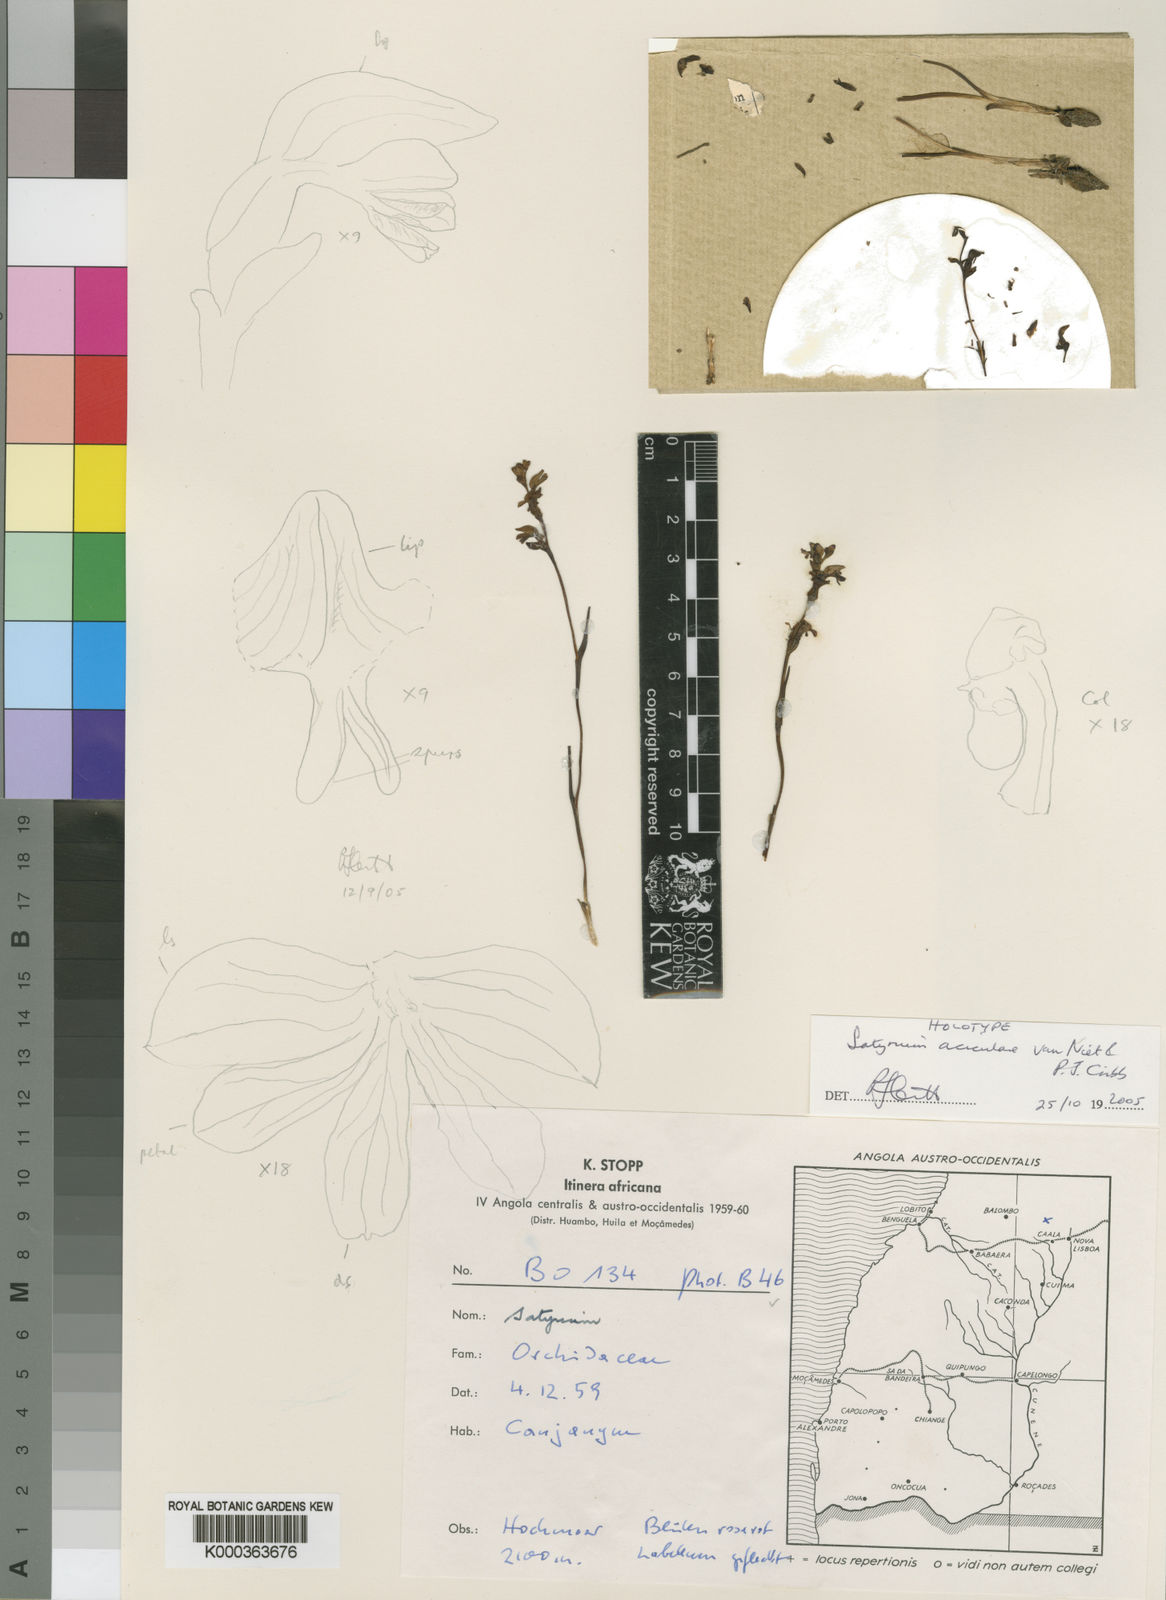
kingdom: Plantae
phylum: Tracheophyta
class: Liliopsida
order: Asparagales
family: Orchidaceae
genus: Satyrium
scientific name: Satyrium aciculare
